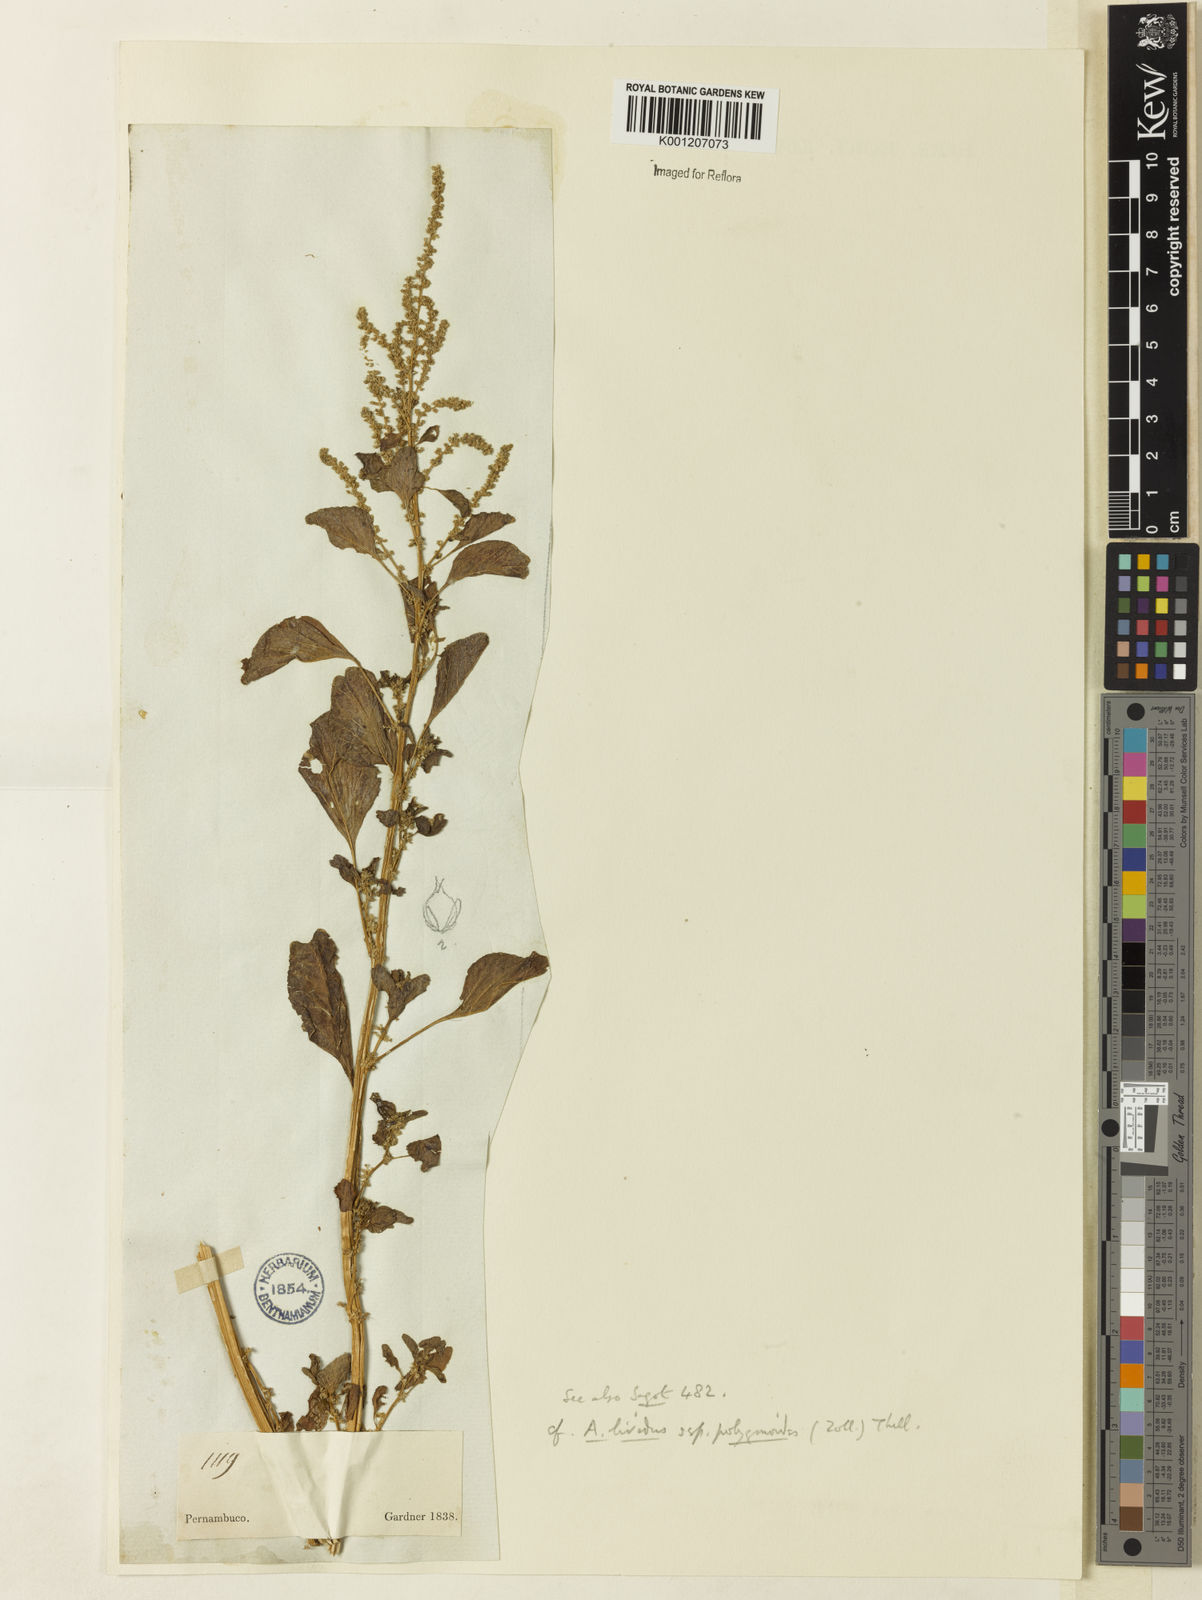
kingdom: Plantae
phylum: Tracheophyta
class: Magnoliopsida
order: Caryophyllales
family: Amaranthaceae
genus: Amaranthus
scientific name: Amaranthus emarginatus
